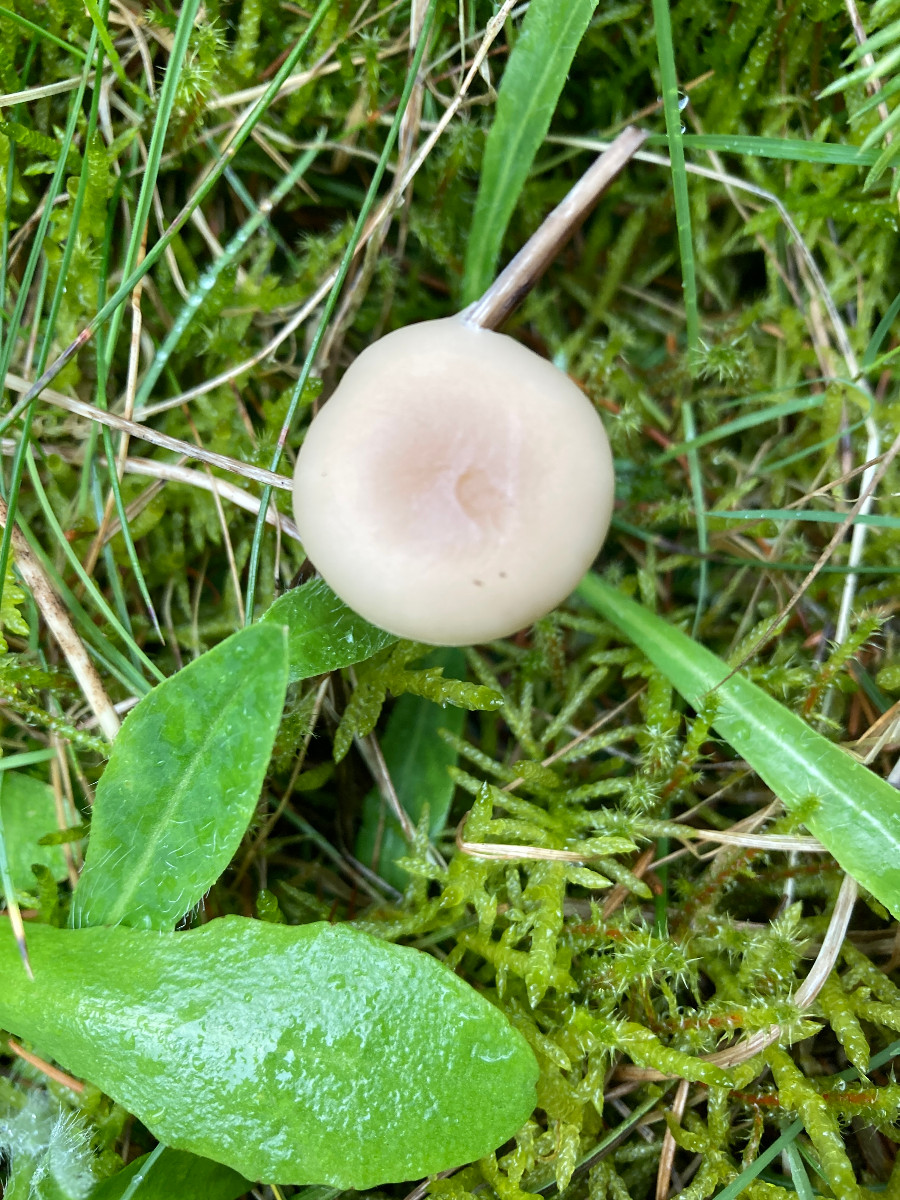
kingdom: Fungi
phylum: Basidiomycota
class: Agaricomycetes
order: Agaricales
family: Tricholomataceae
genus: Clitocybe
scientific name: Clitocybe
